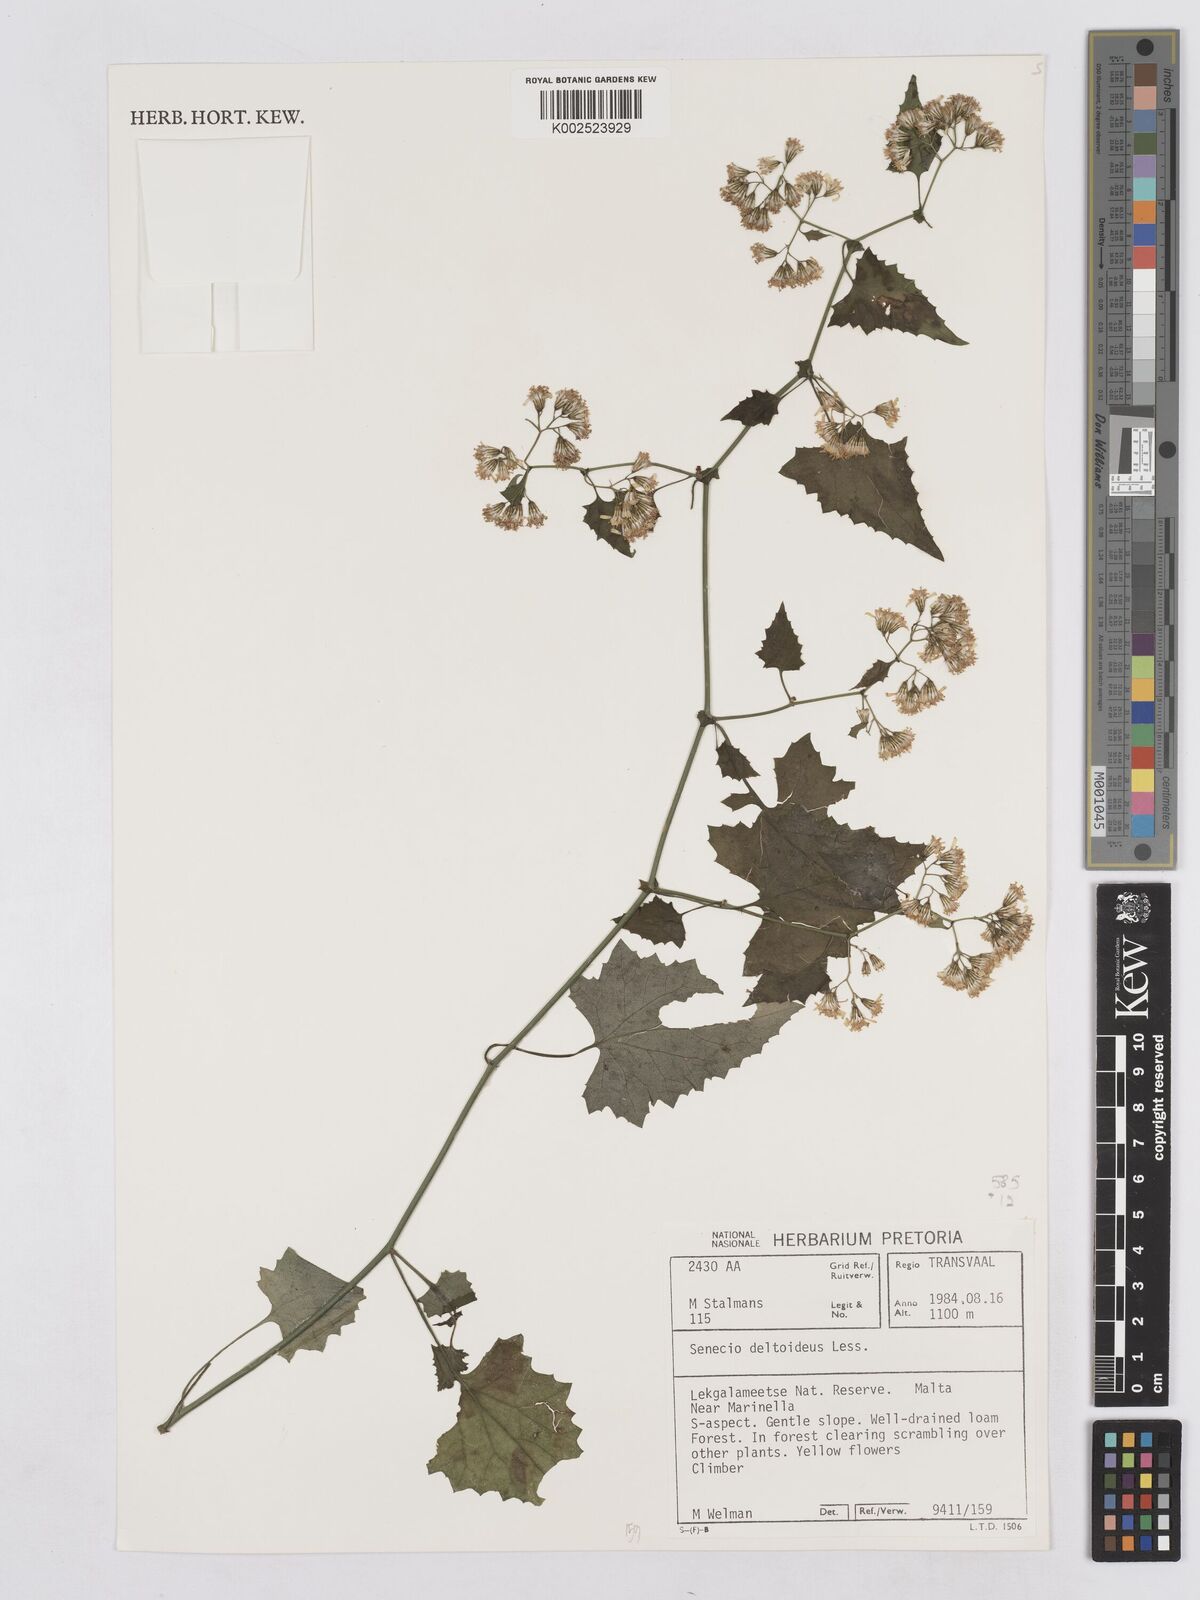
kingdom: Plantae
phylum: Tracheophyta
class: Magnoliopsida
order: Asterales
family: Asteraceae
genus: Senecio
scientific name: Senecio deltoideus
